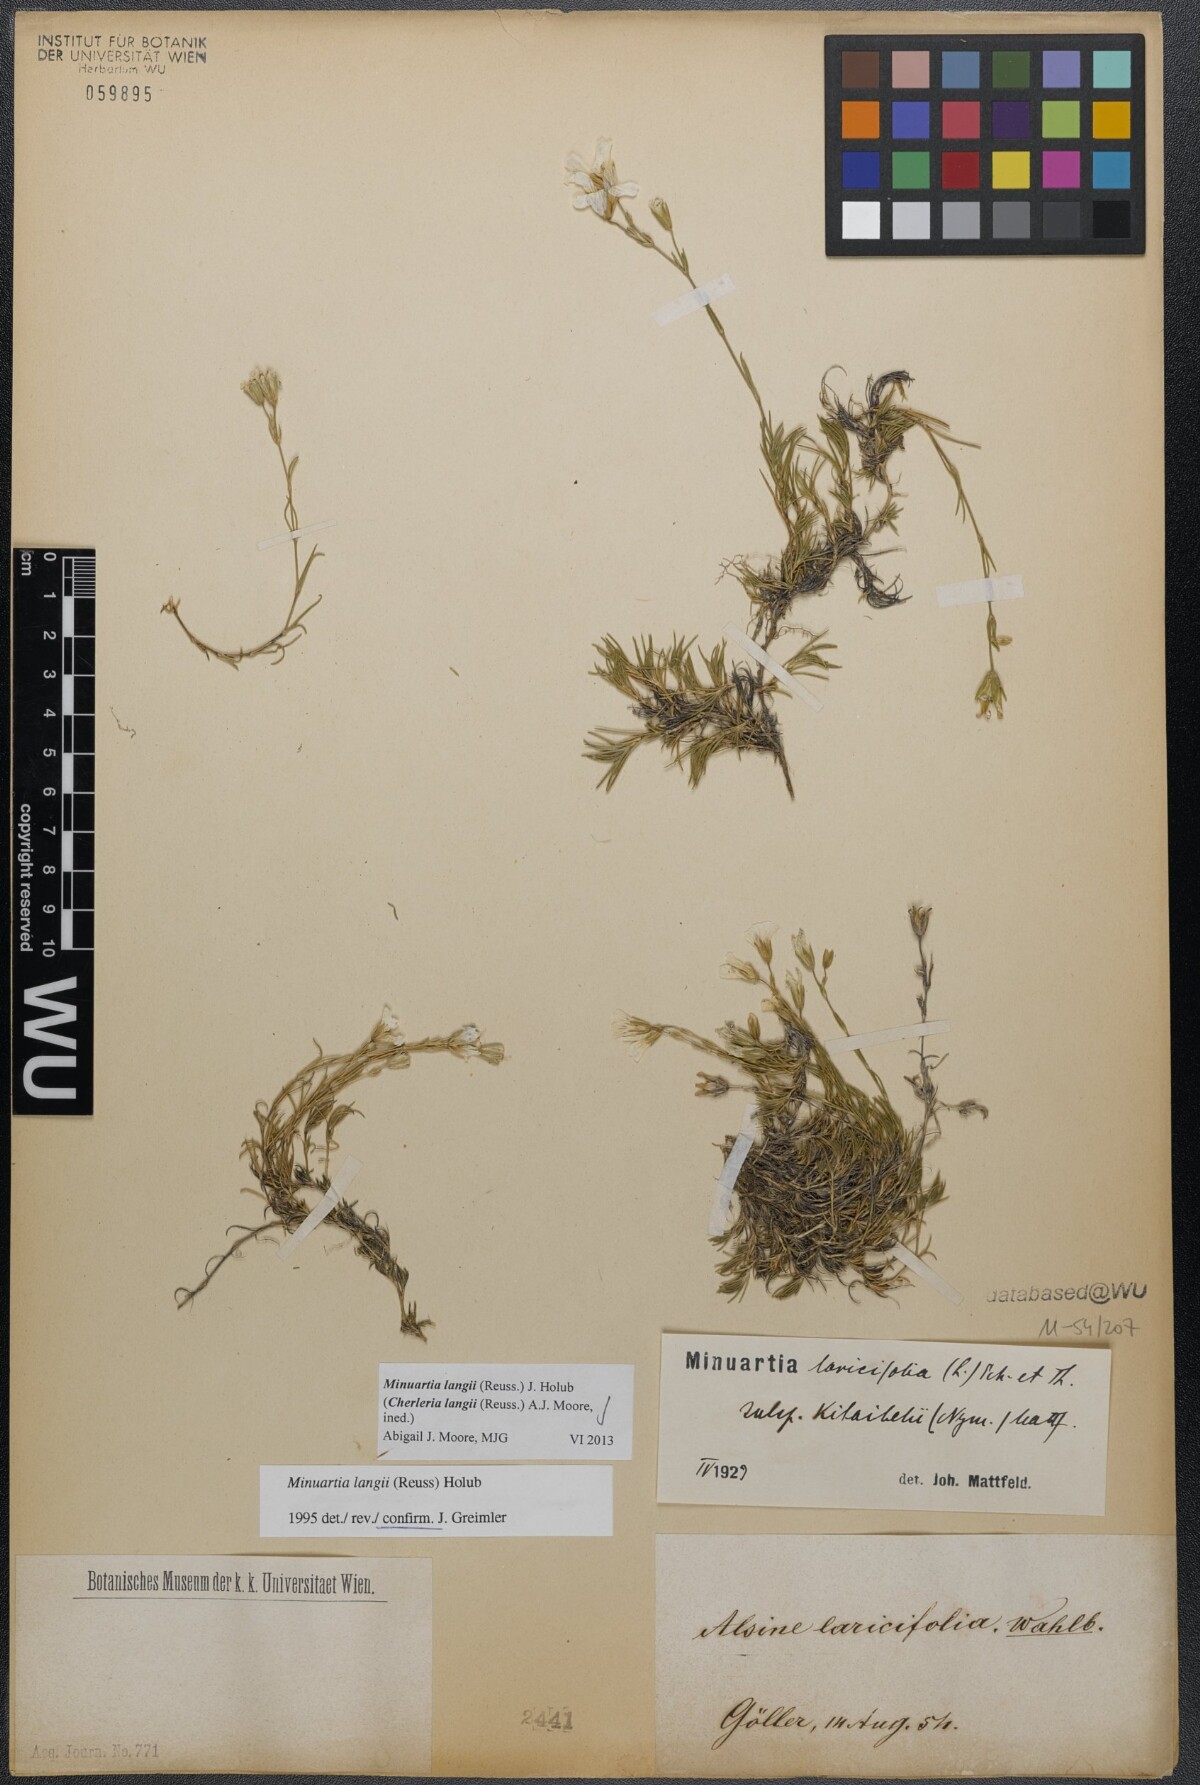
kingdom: Plantae
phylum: Tracheophyta
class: Magnoliopsida
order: Caryophyllales
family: Caryophyllaceae
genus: Cherleria
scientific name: Cherleria langii
